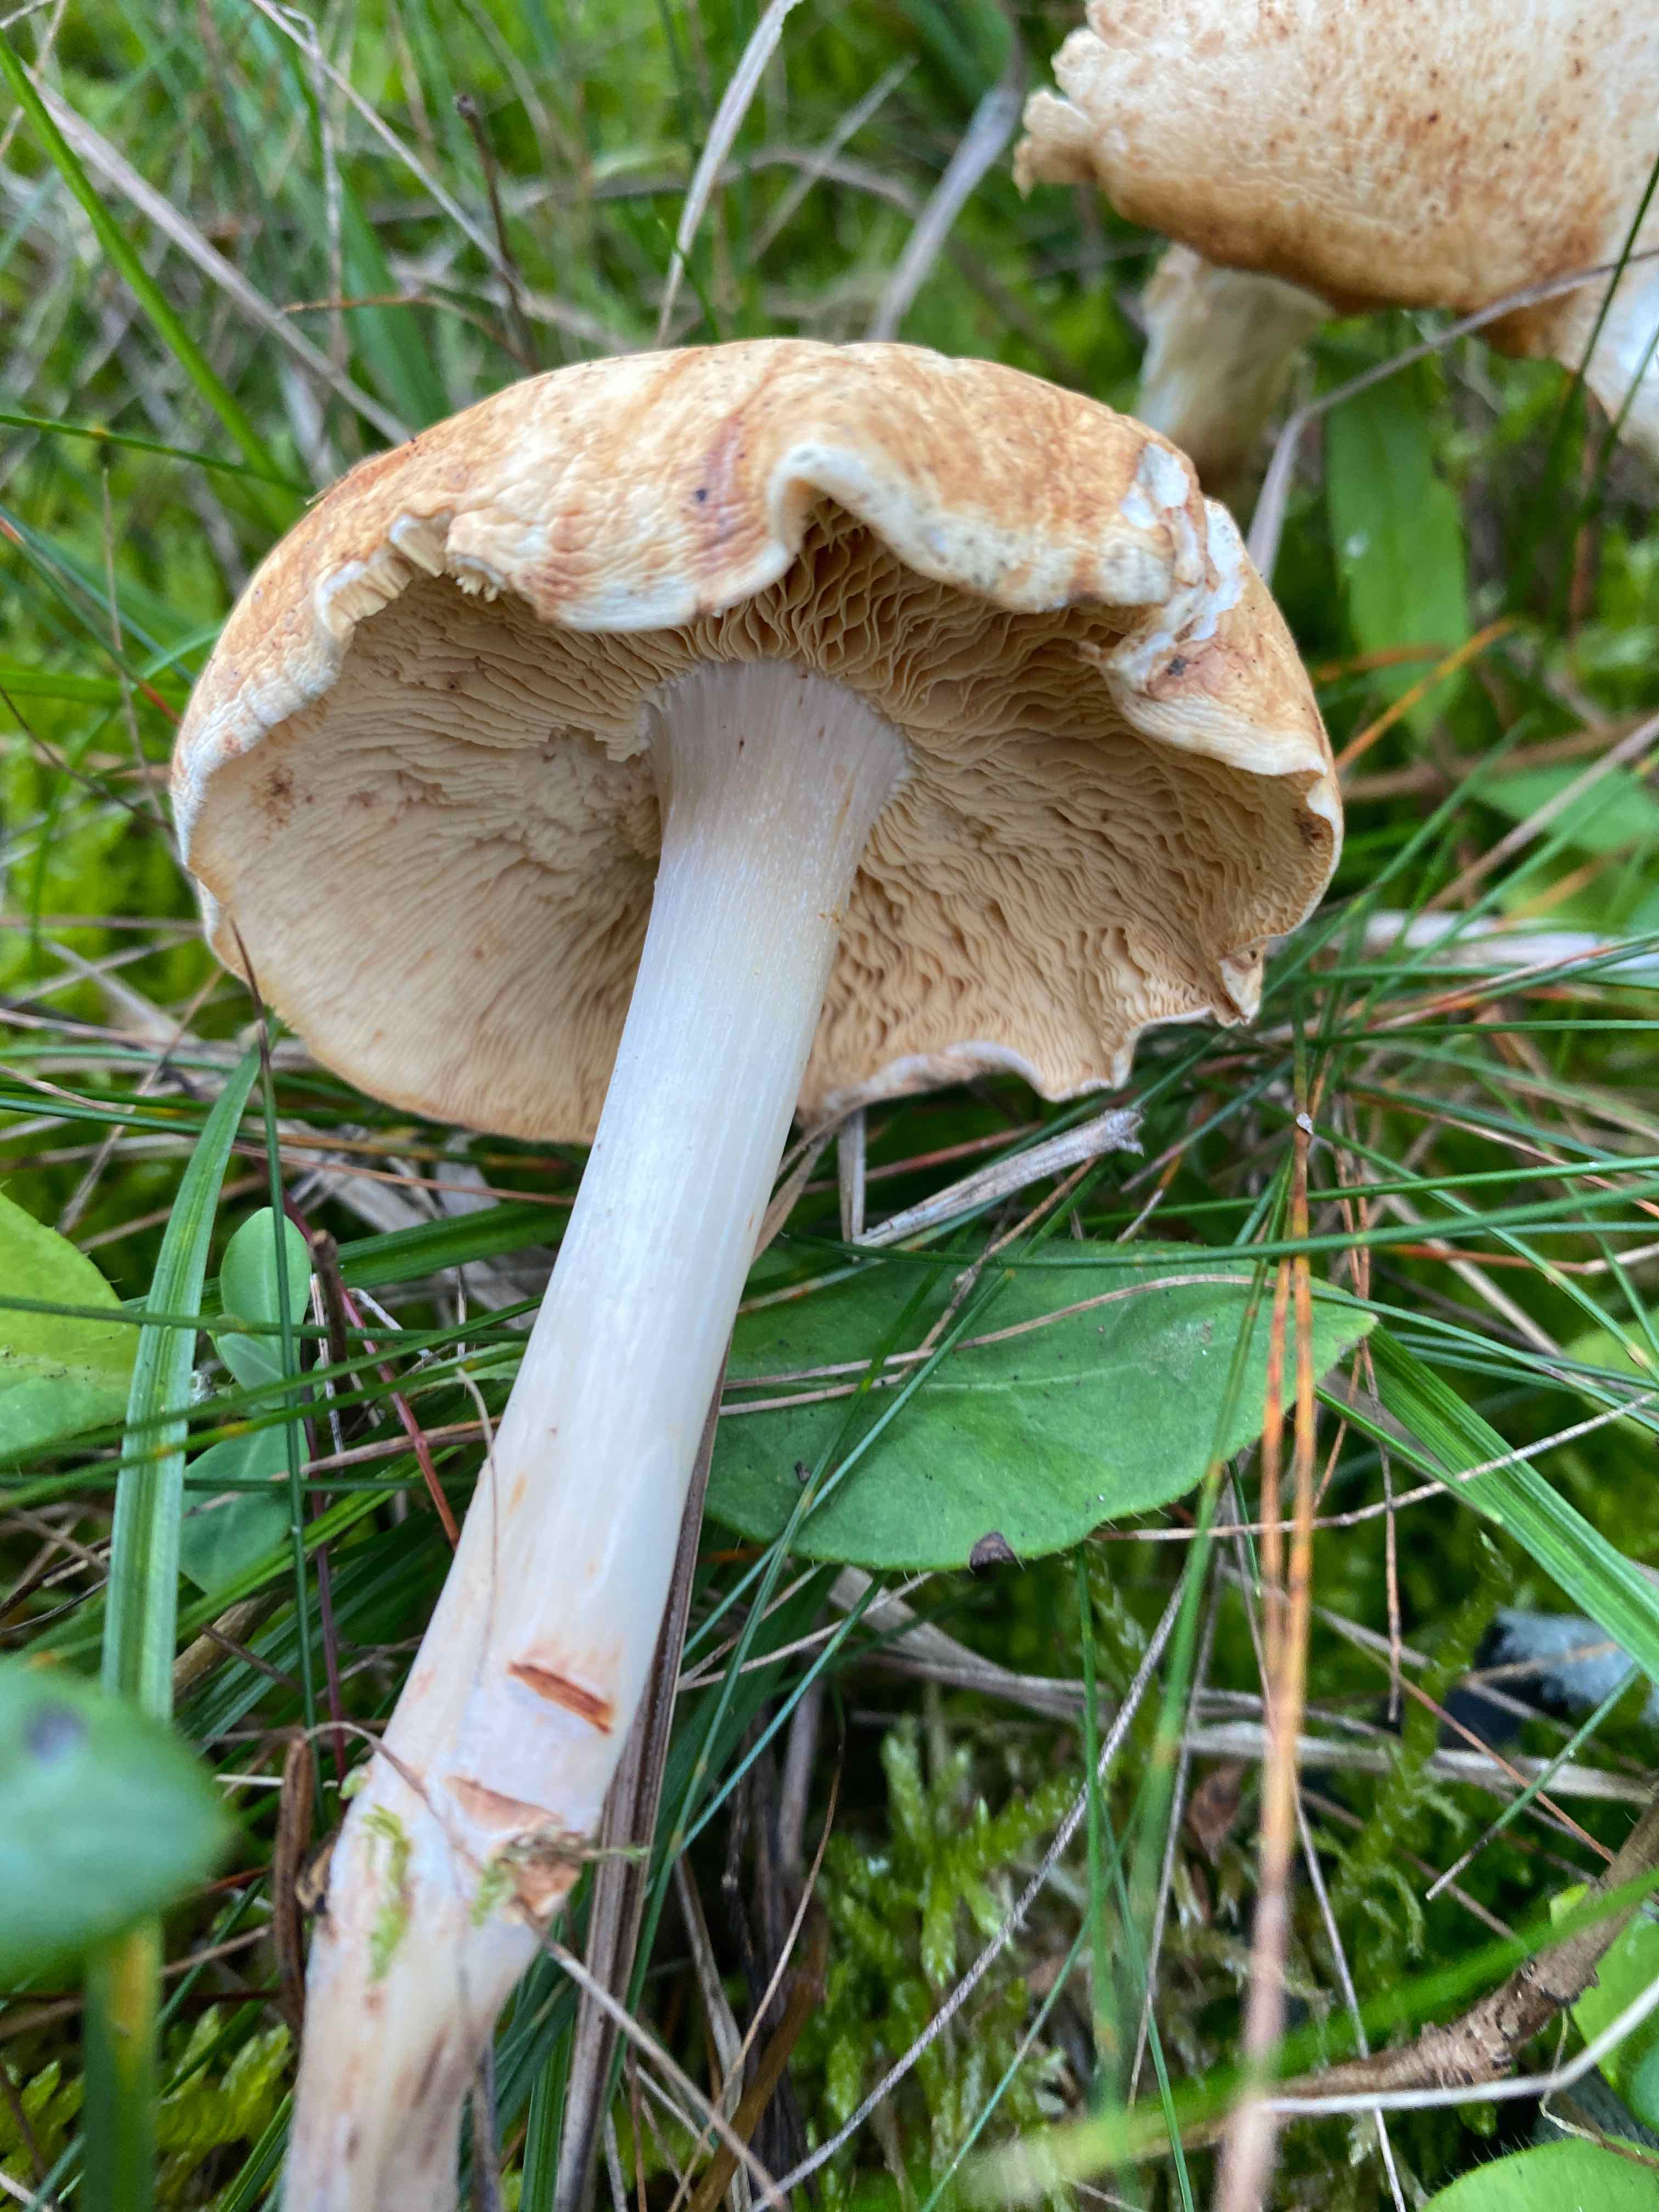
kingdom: Fungi
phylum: Basidiomycota
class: Agaricomycetes
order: Agaricales
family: Omphalotaceae
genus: Rhodocollybia
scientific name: Rhodocollybia maculata
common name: plettet fladhat
